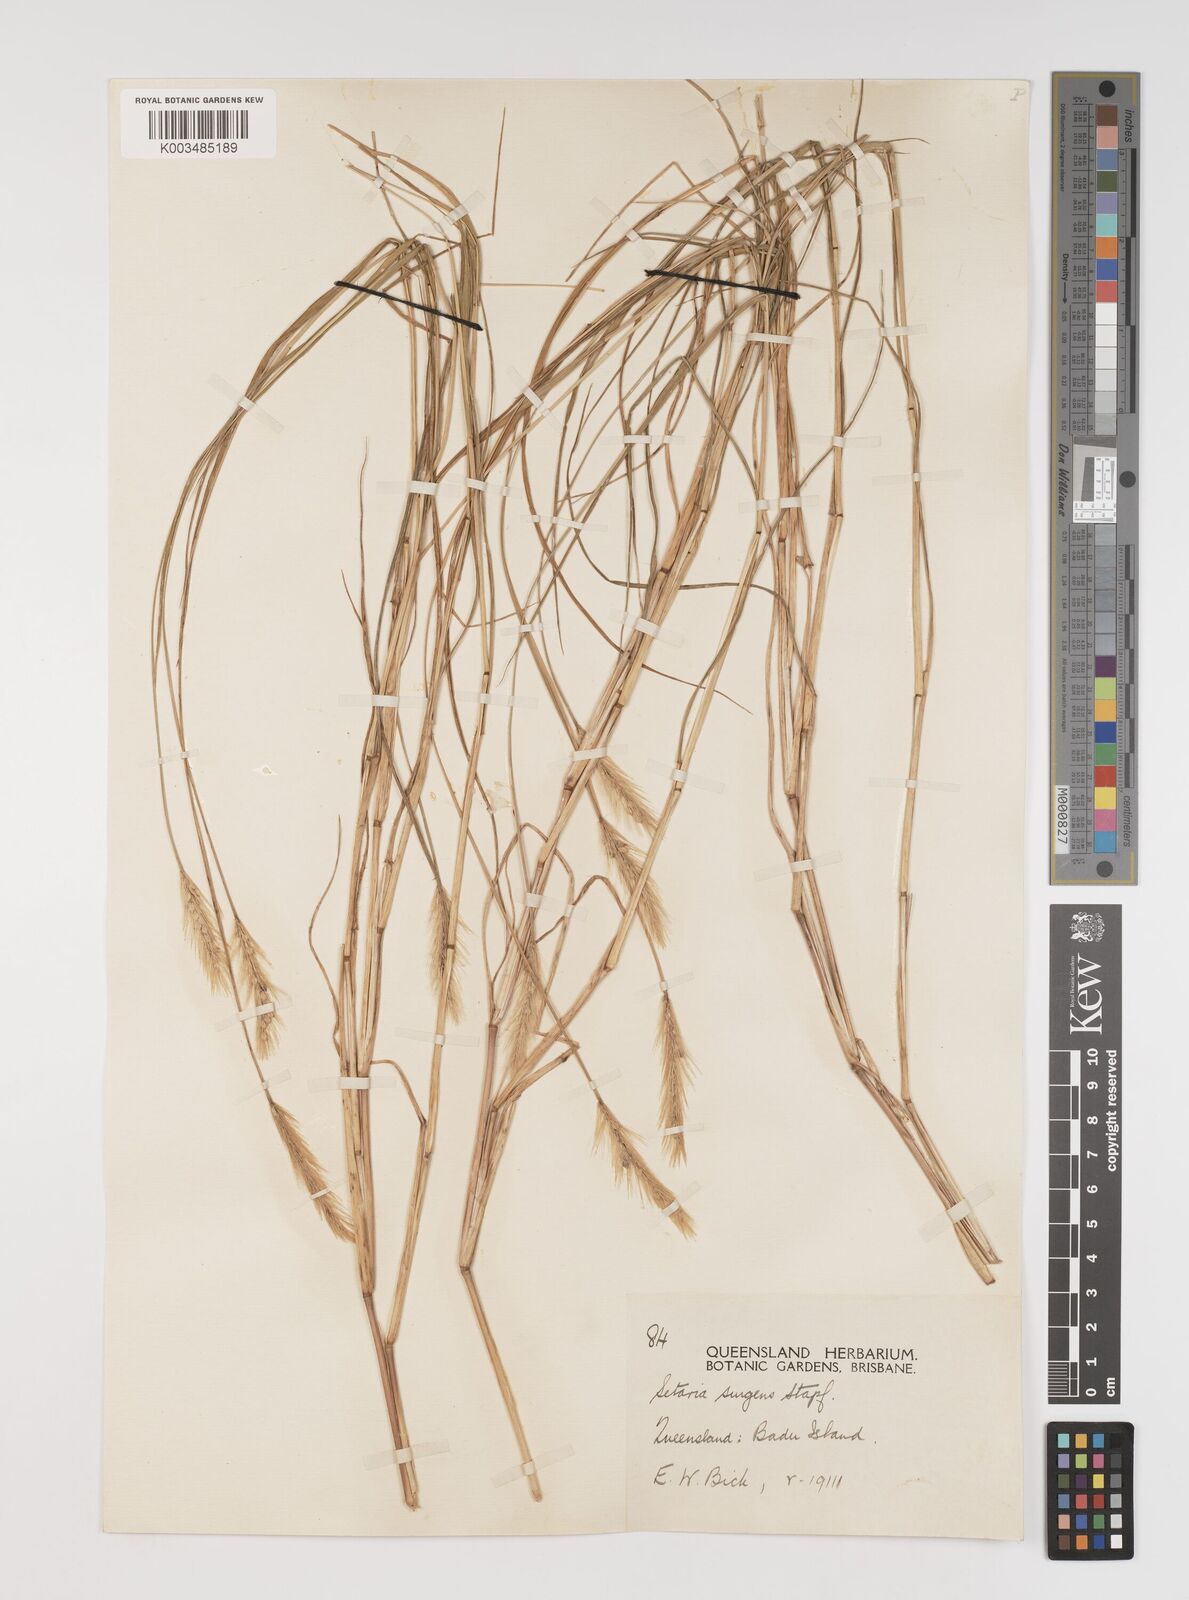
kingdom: Plantae
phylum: Tracheophyta
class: Liliopsida
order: Poales
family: Poaceae
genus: Setaria
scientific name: Setaria apiculata
